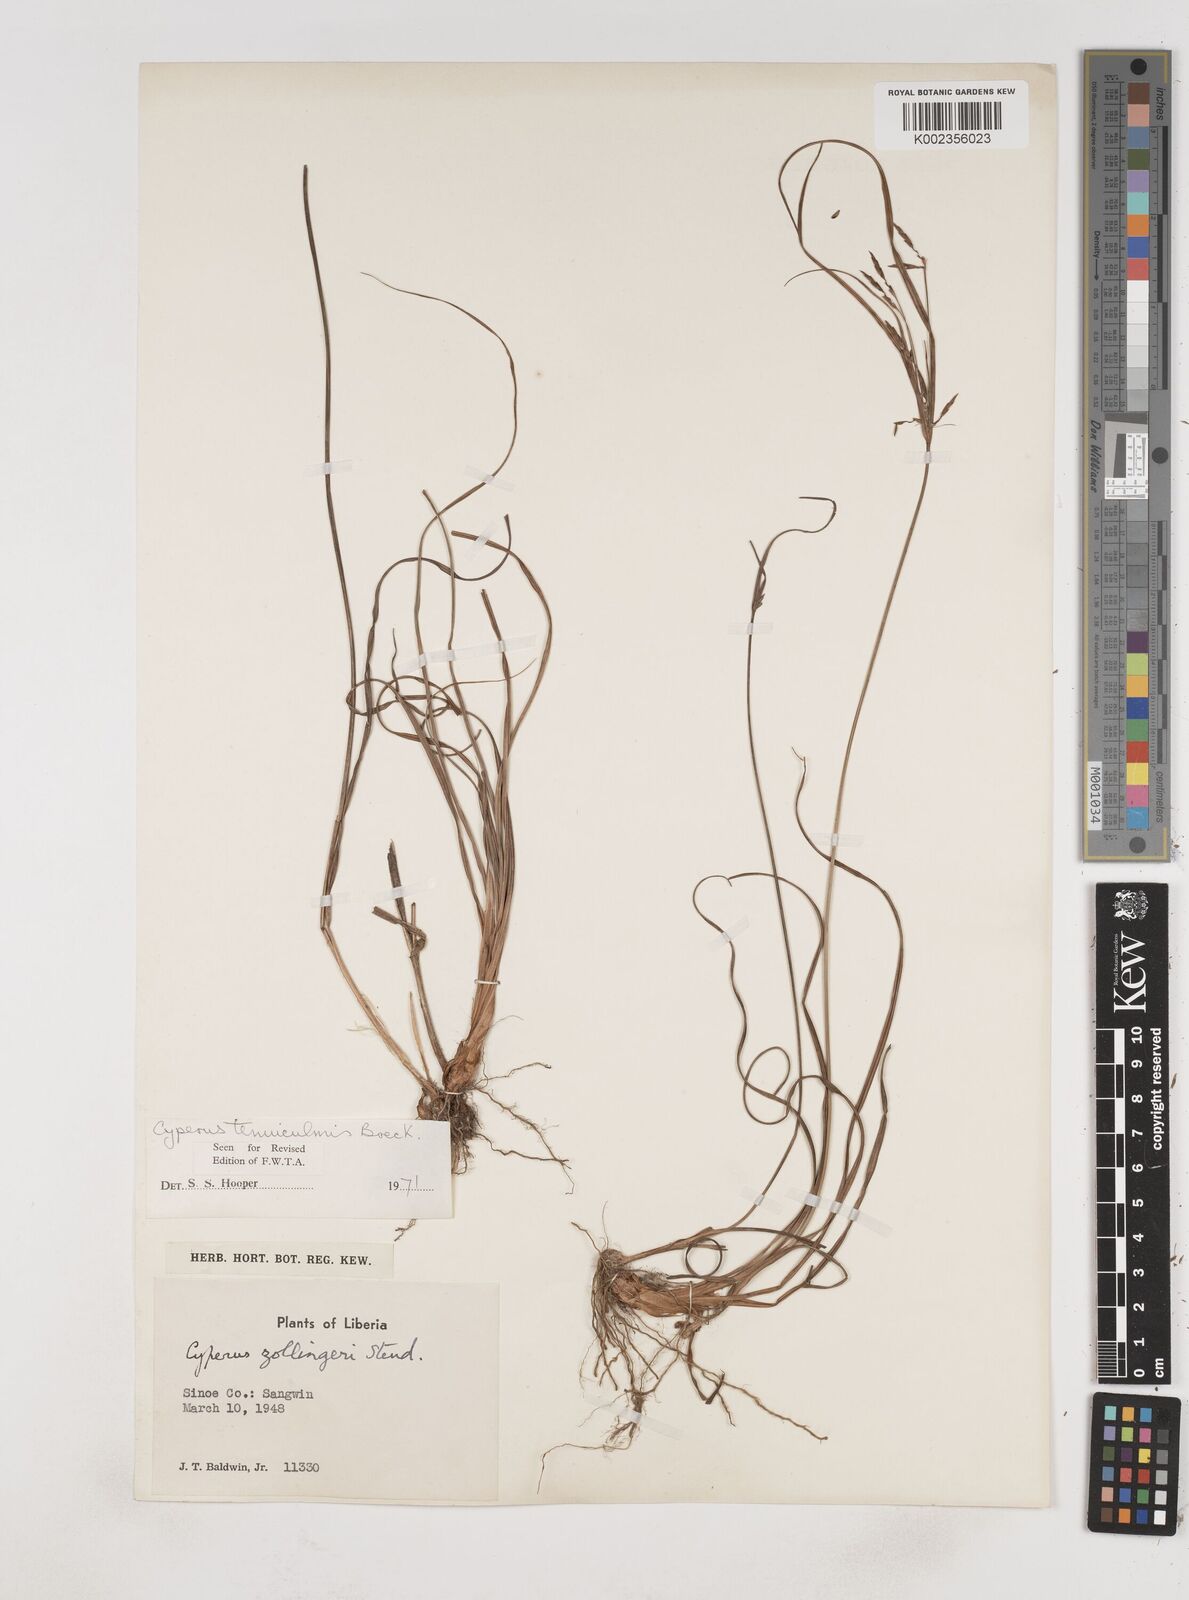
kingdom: Plantae
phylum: Tracheophyta
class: Liliopsida
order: Poales
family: Cyperaceae
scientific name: Cyperaceae
